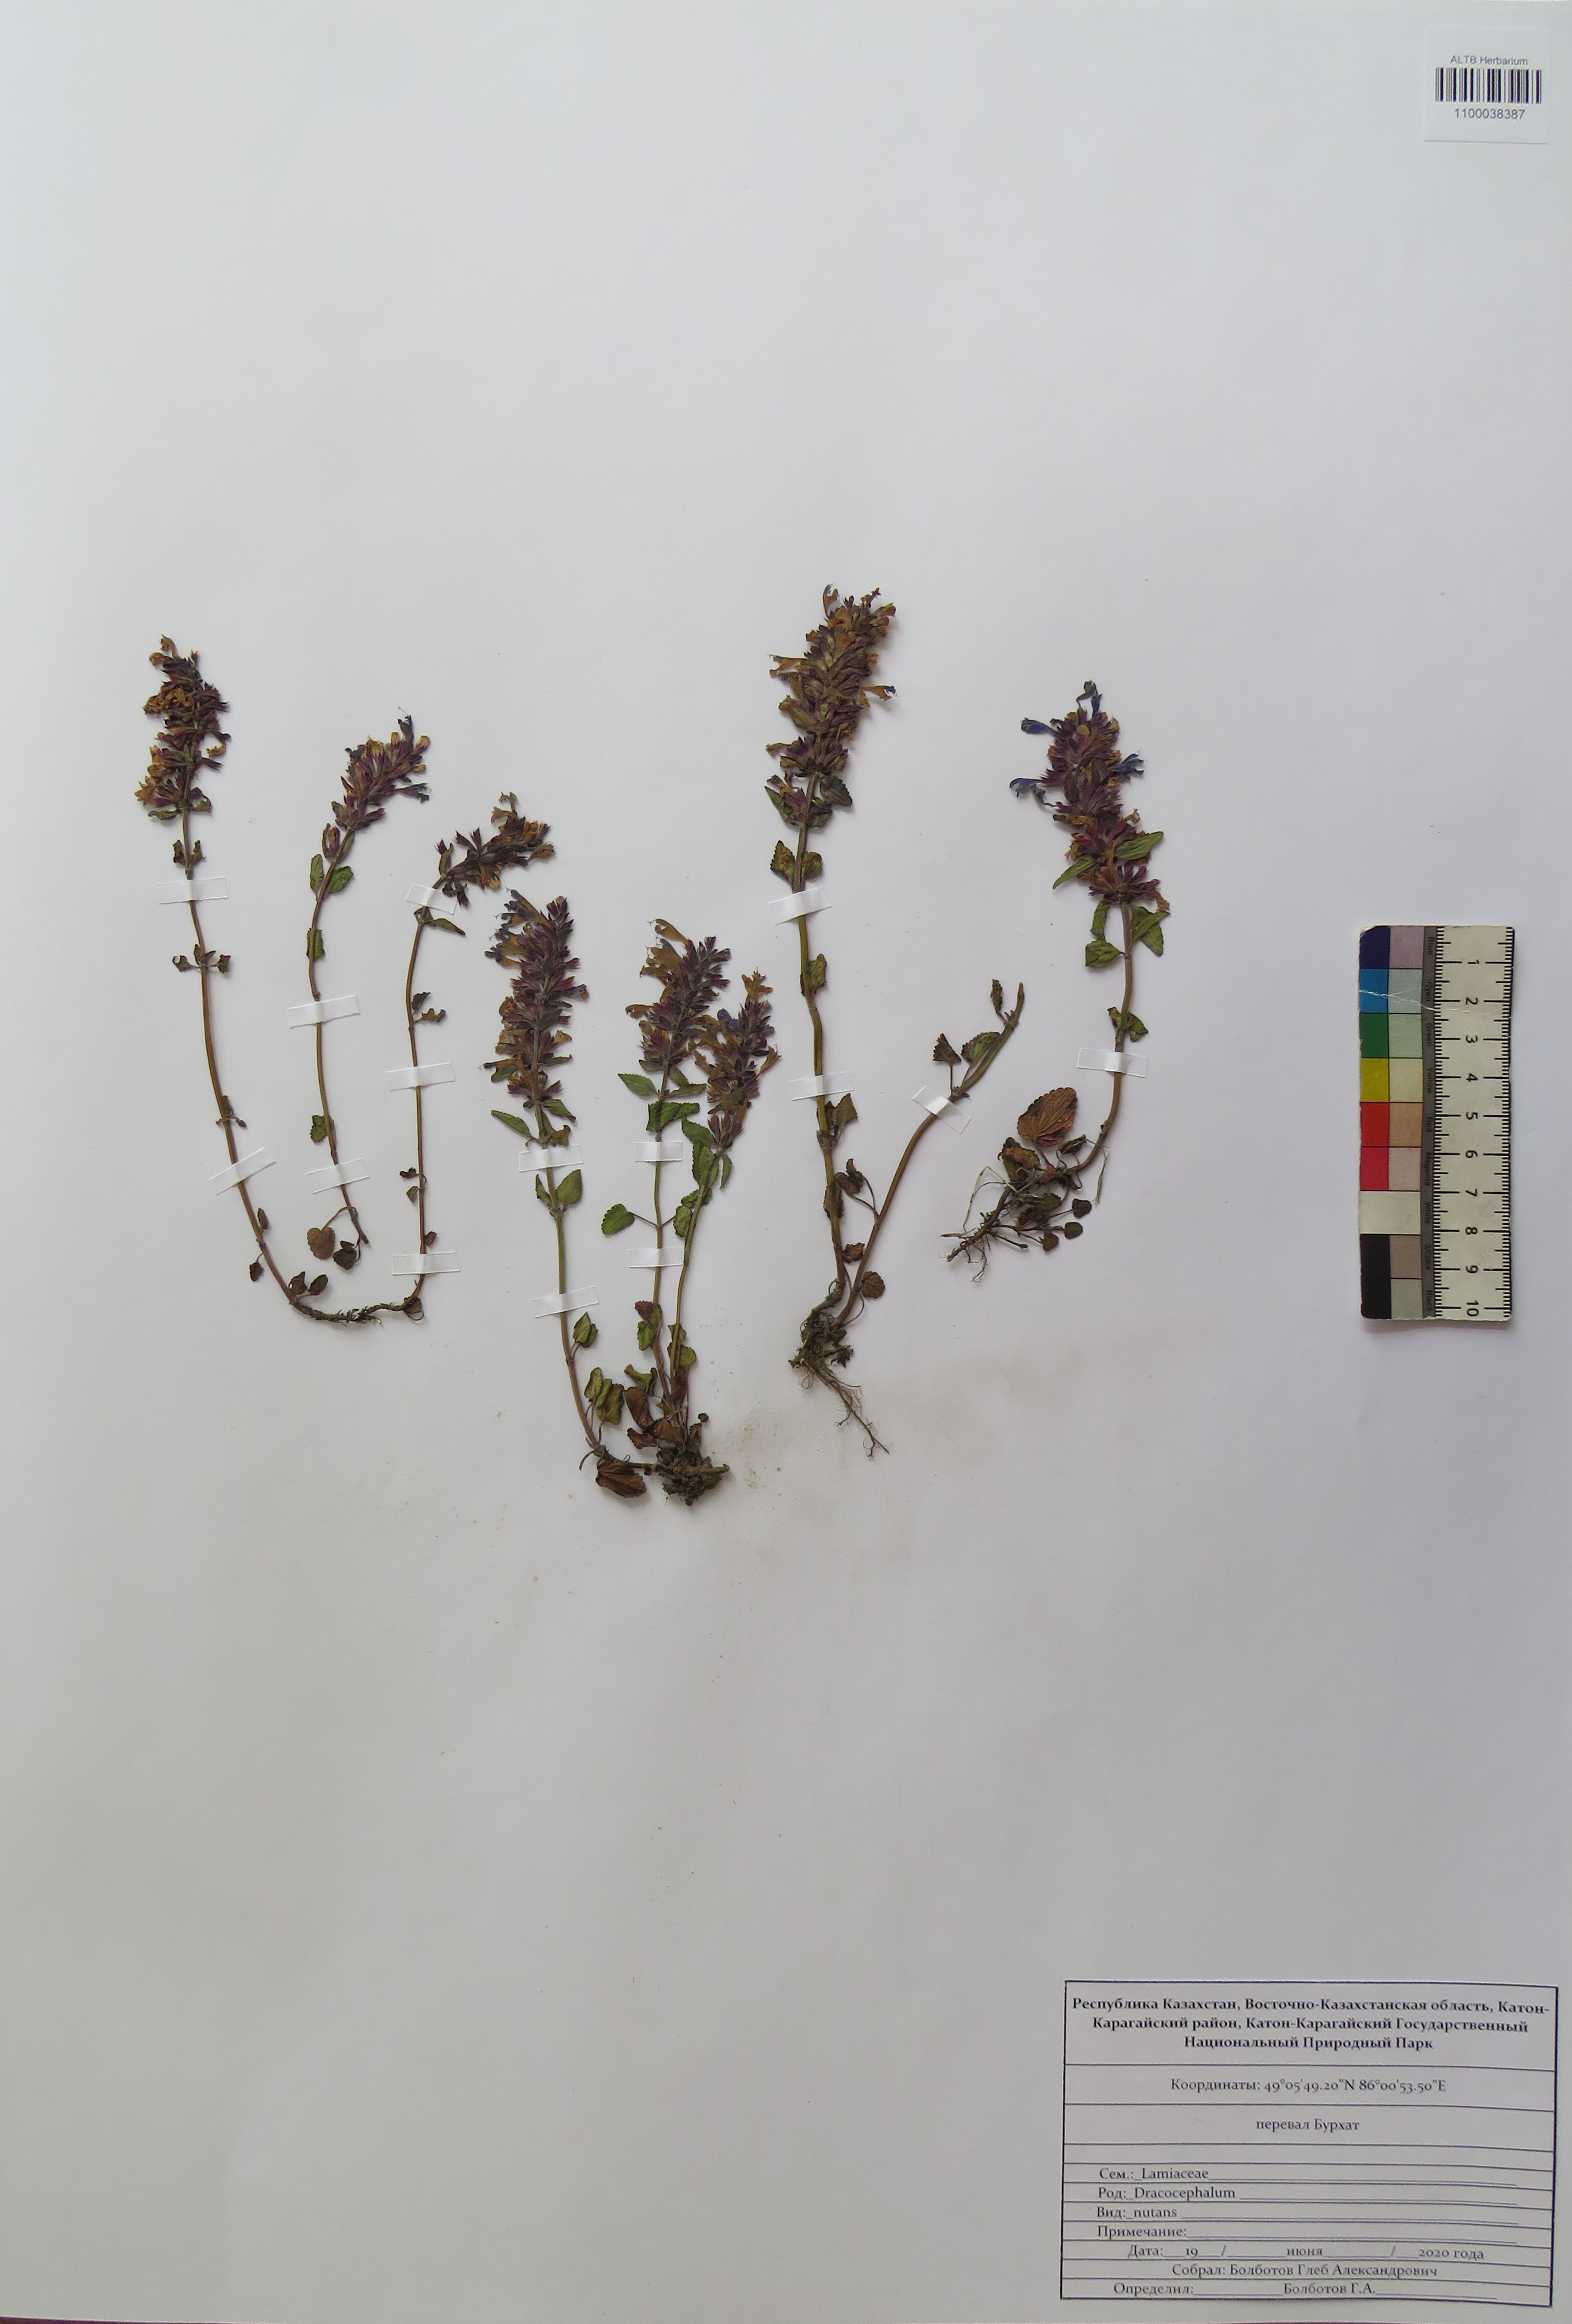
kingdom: Plantae
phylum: Tracheophyta
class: Magnoliopsida
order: Lamiales
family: Lamiaceae
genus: Dracocephalum
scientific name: Dracocephalum nutans
